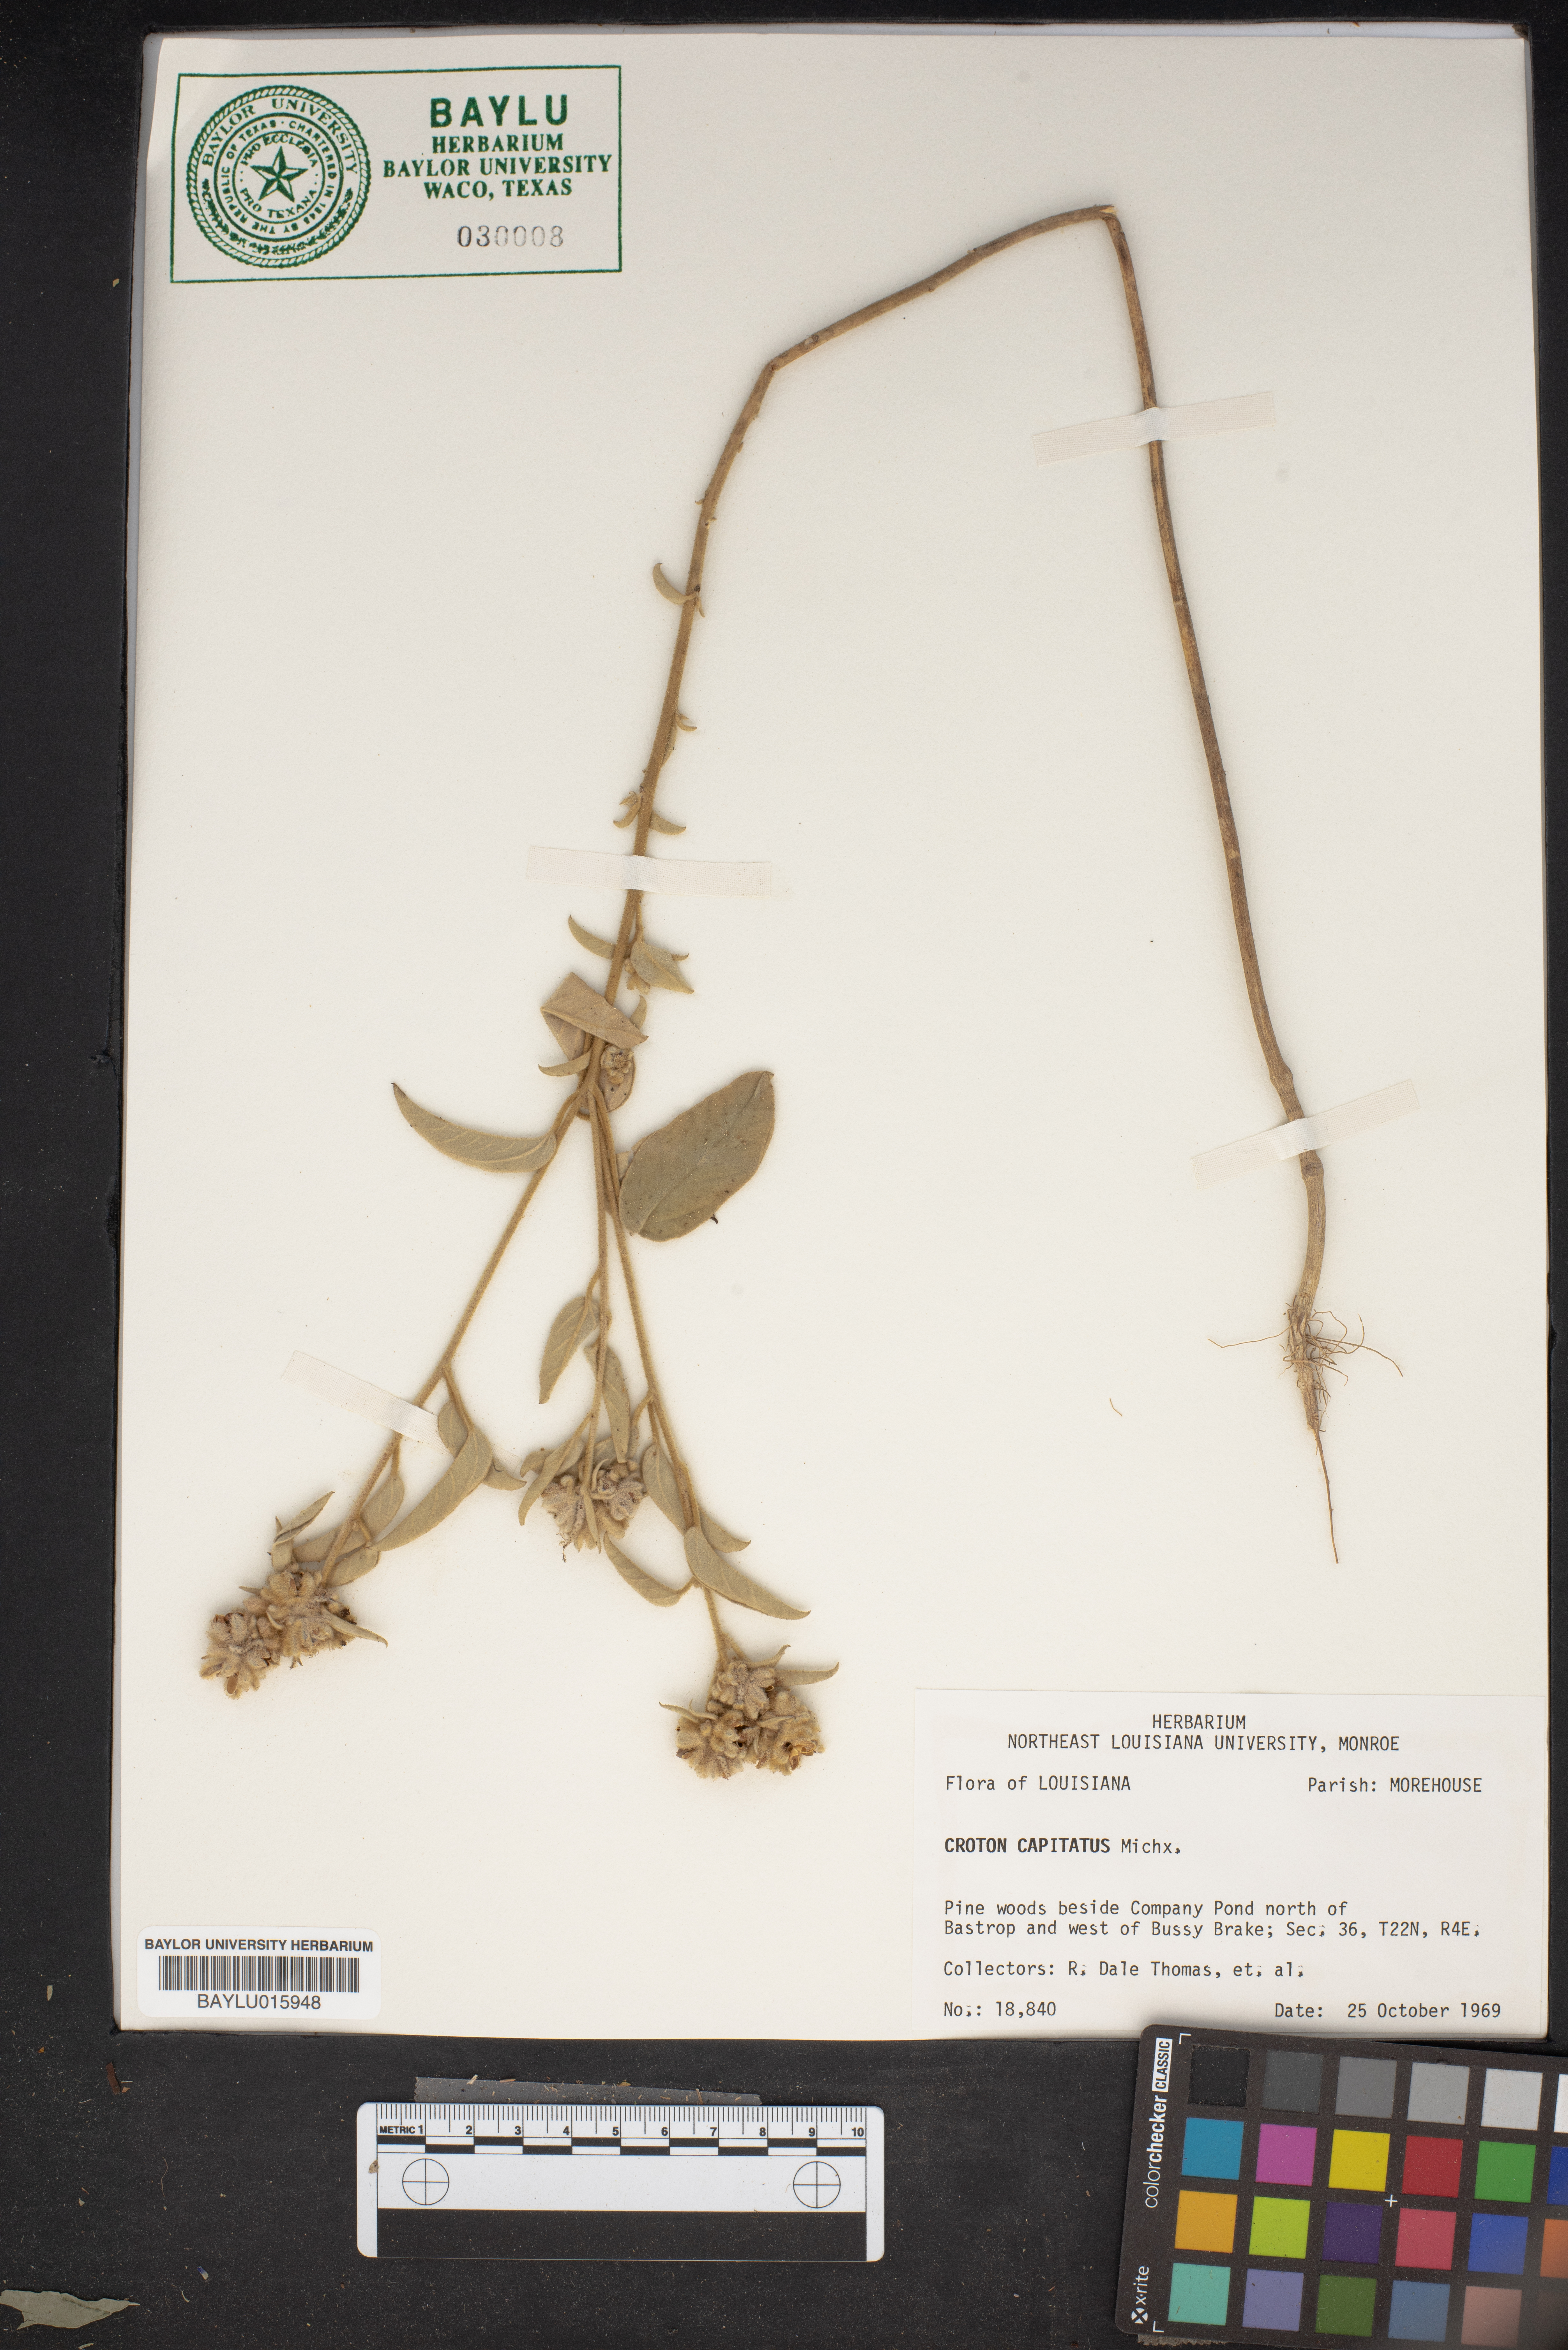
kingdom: Plantae
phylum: Tracheophyta
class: Magnoliopsida
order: Malpighiales
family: Euphorbiaceae
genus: Croton
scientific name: Croton capitatus
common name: Woolly croton
